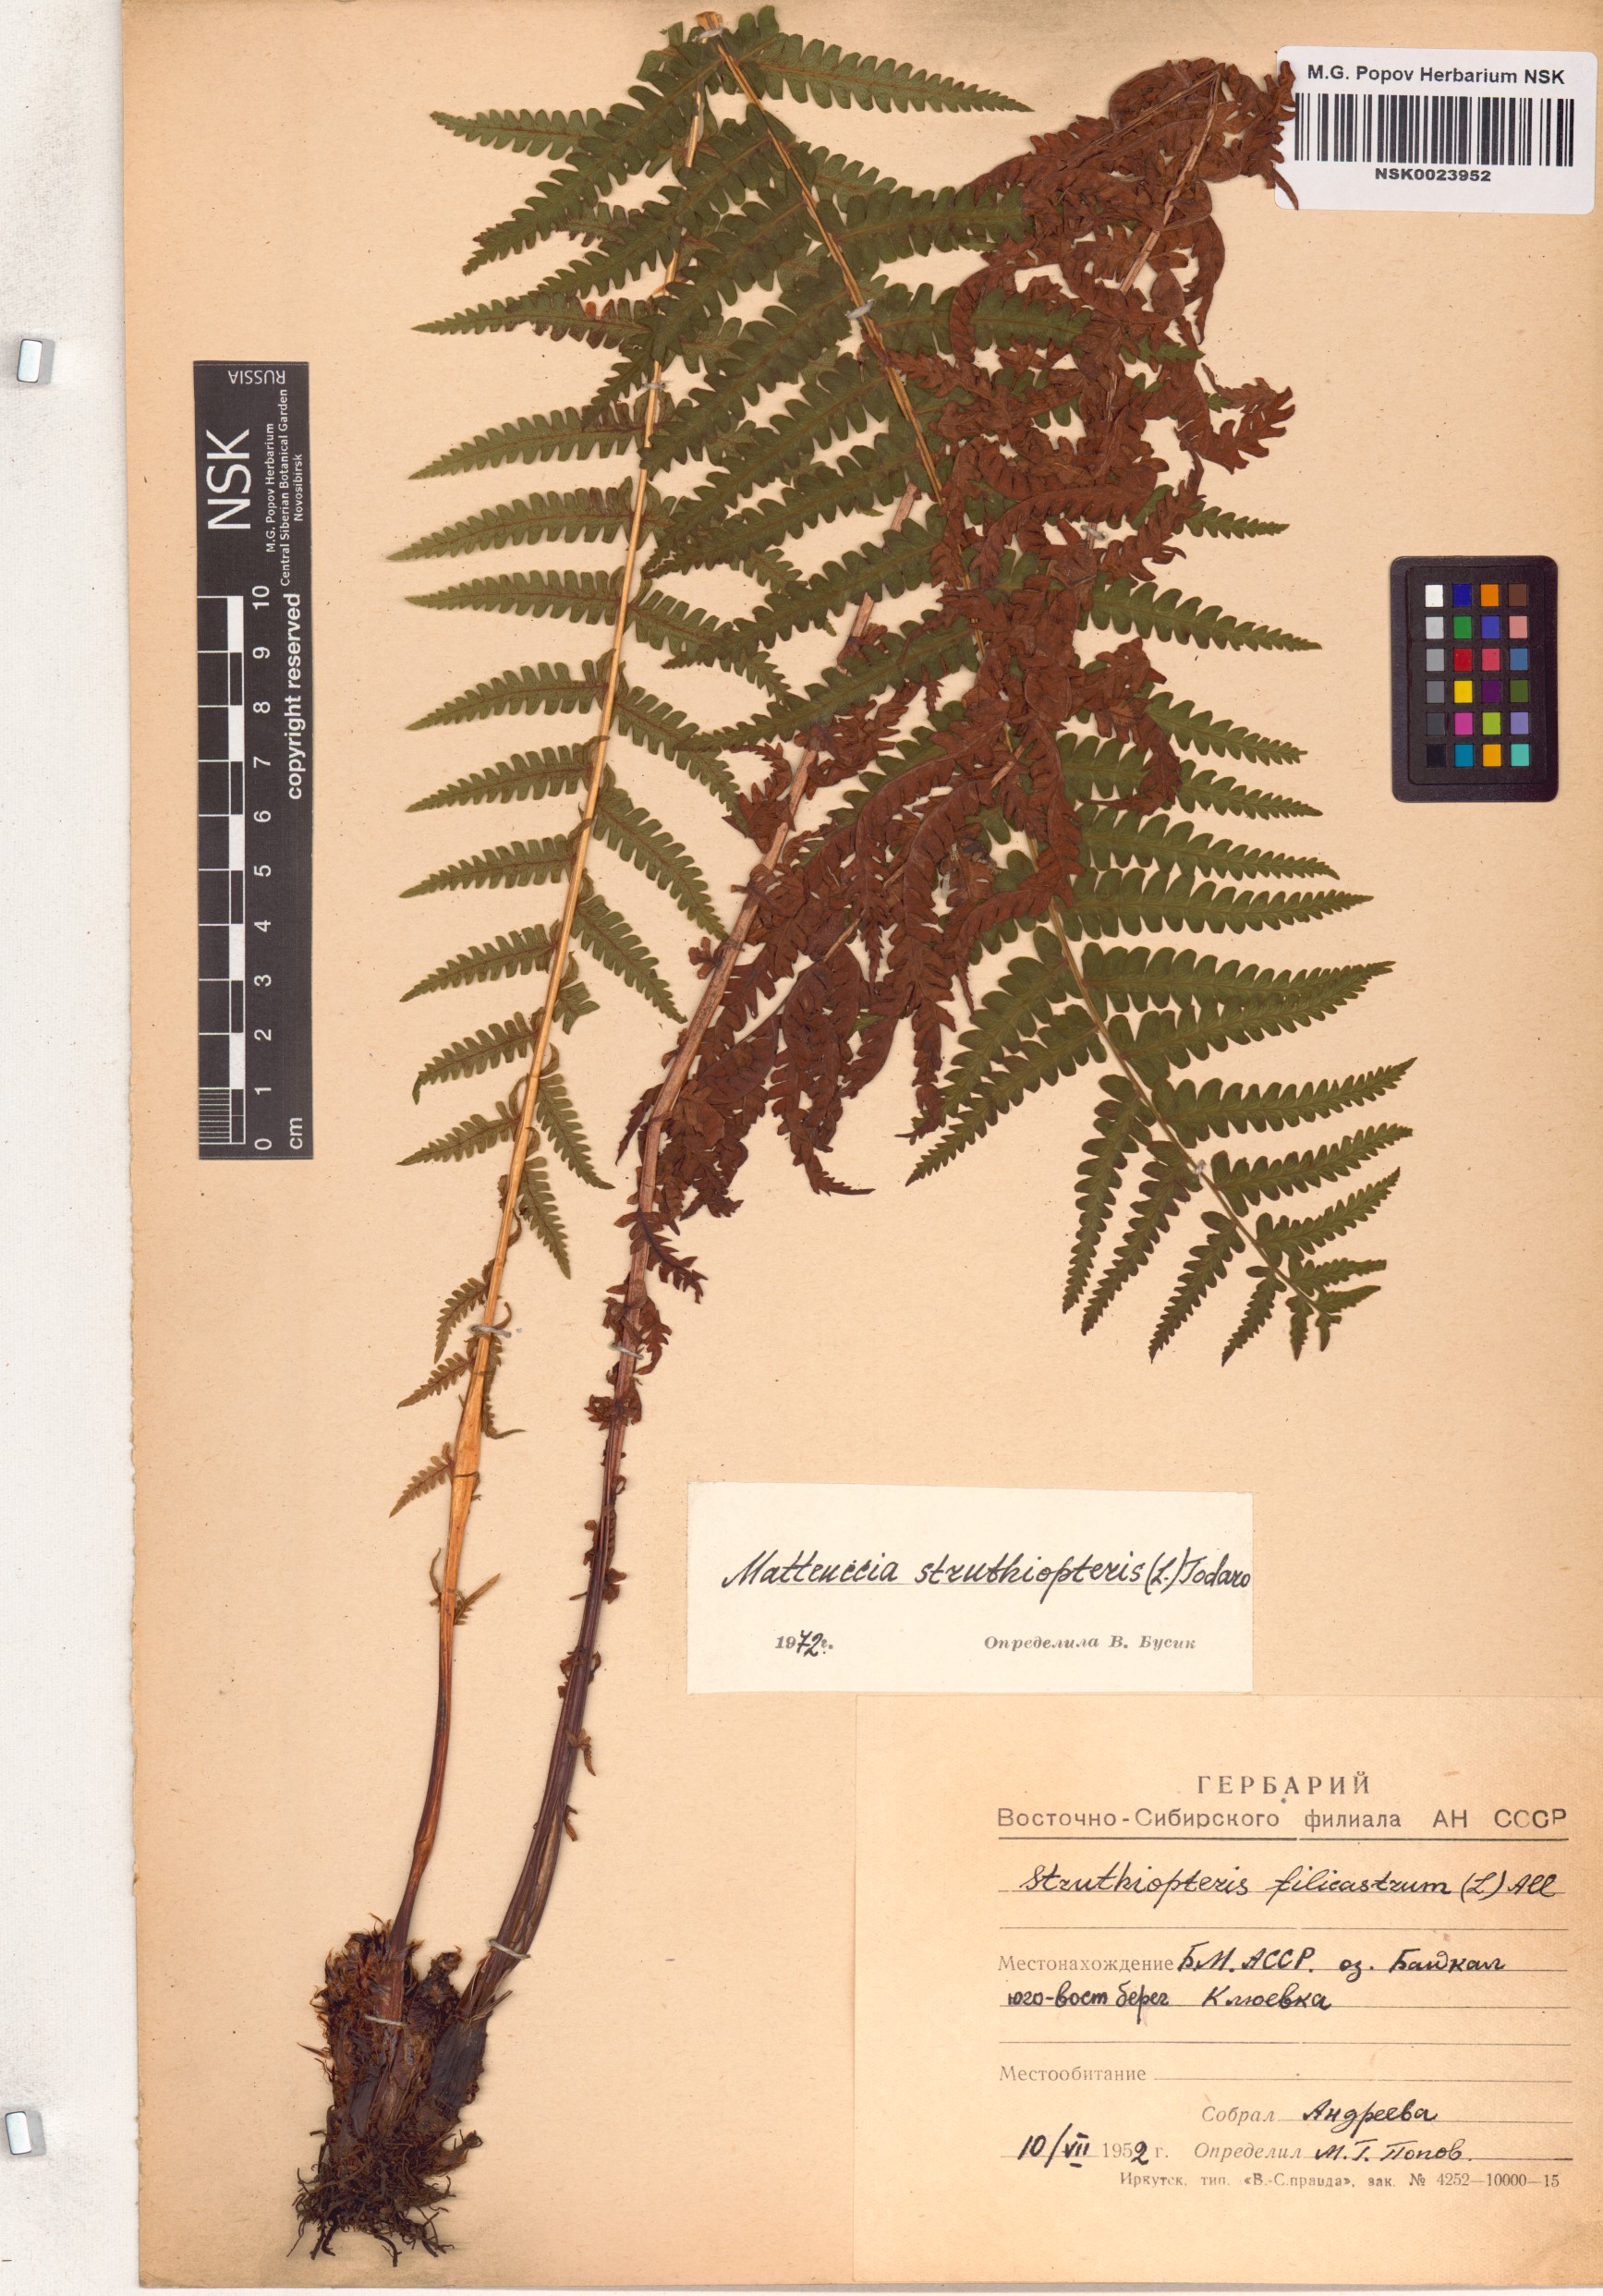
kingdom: Plantae
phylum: Tracheophyta
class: Polypodiopsida
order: Polypodiales
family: Onocleaceae
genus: Matteuccia
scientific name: Matteuccia struthiopteris
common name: Ostrich fern
